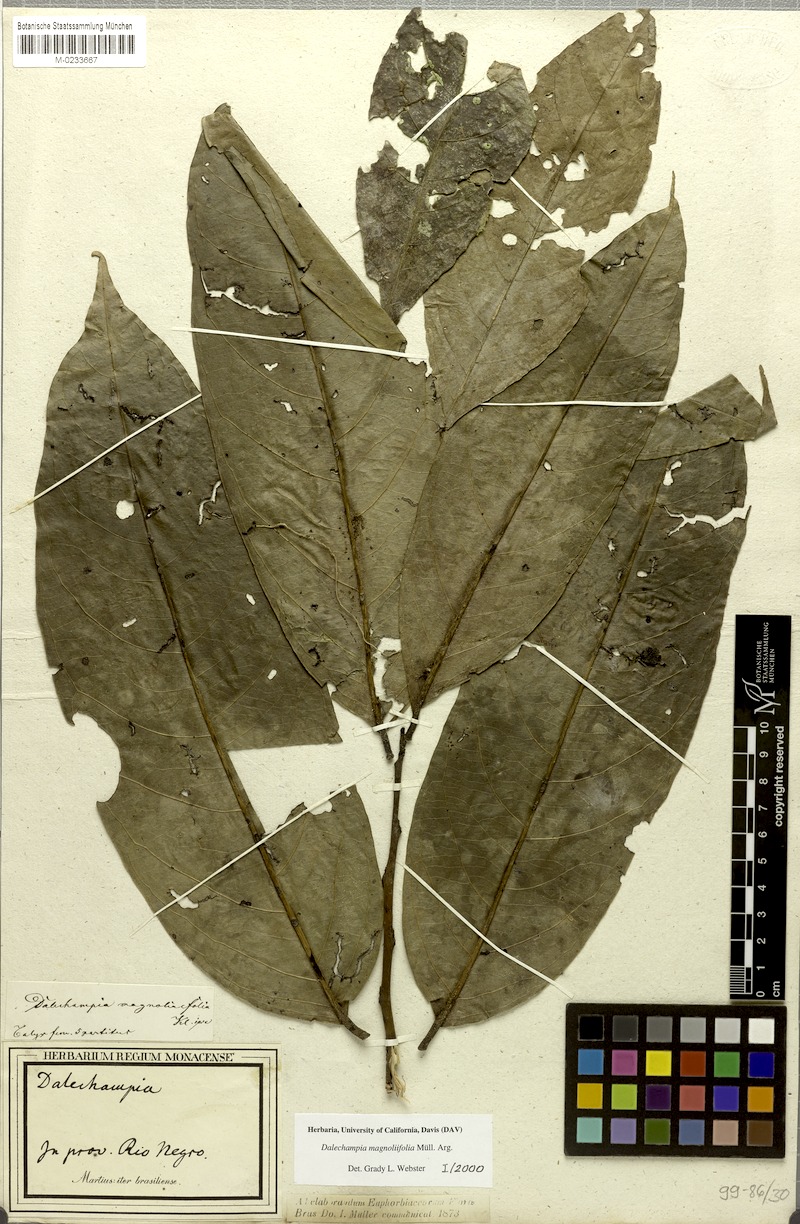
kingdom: Plantae
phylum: Tracheophyta
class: Magnoliopsida
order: Malpighiales
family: Euphorbiaceae
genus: Dalechampia
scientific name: Dalechampia magnoliifolia
